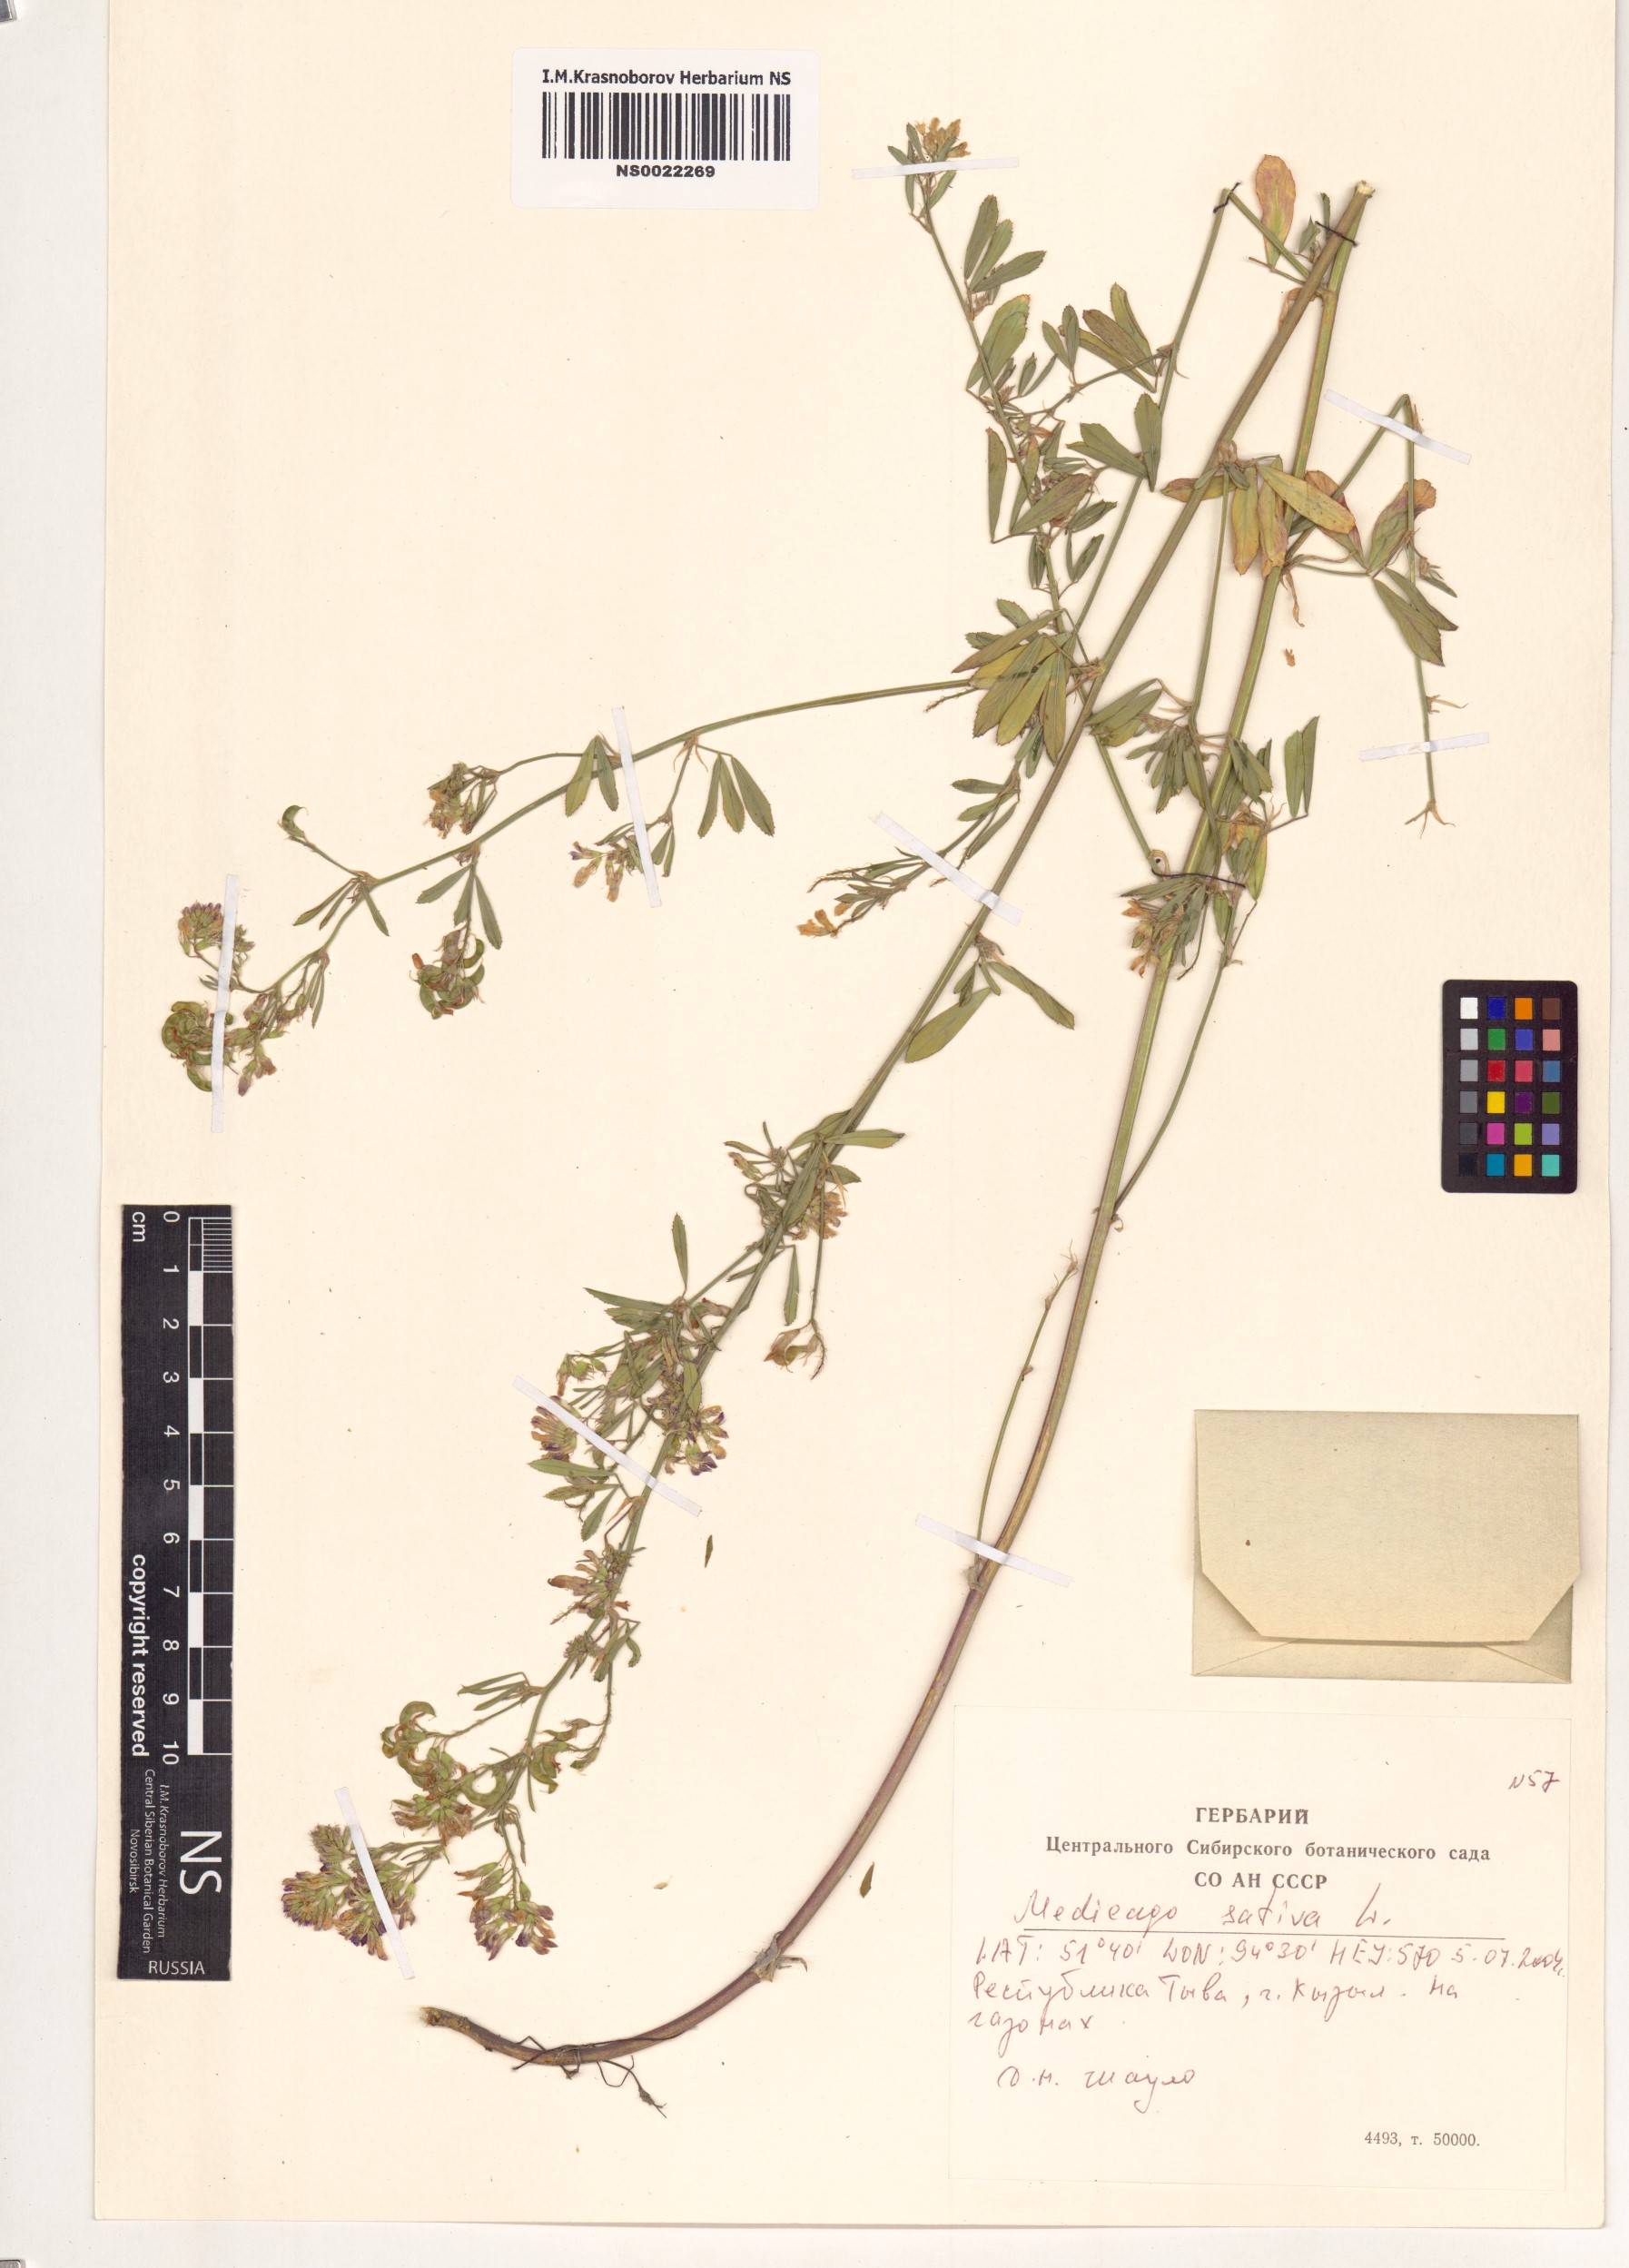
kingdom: Plantae
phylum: Tracheophyta
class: Magnoliopsida
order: Fabales
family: Fabaceae
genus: Medicago
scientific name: Medicago sativa
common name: Alfalfa
